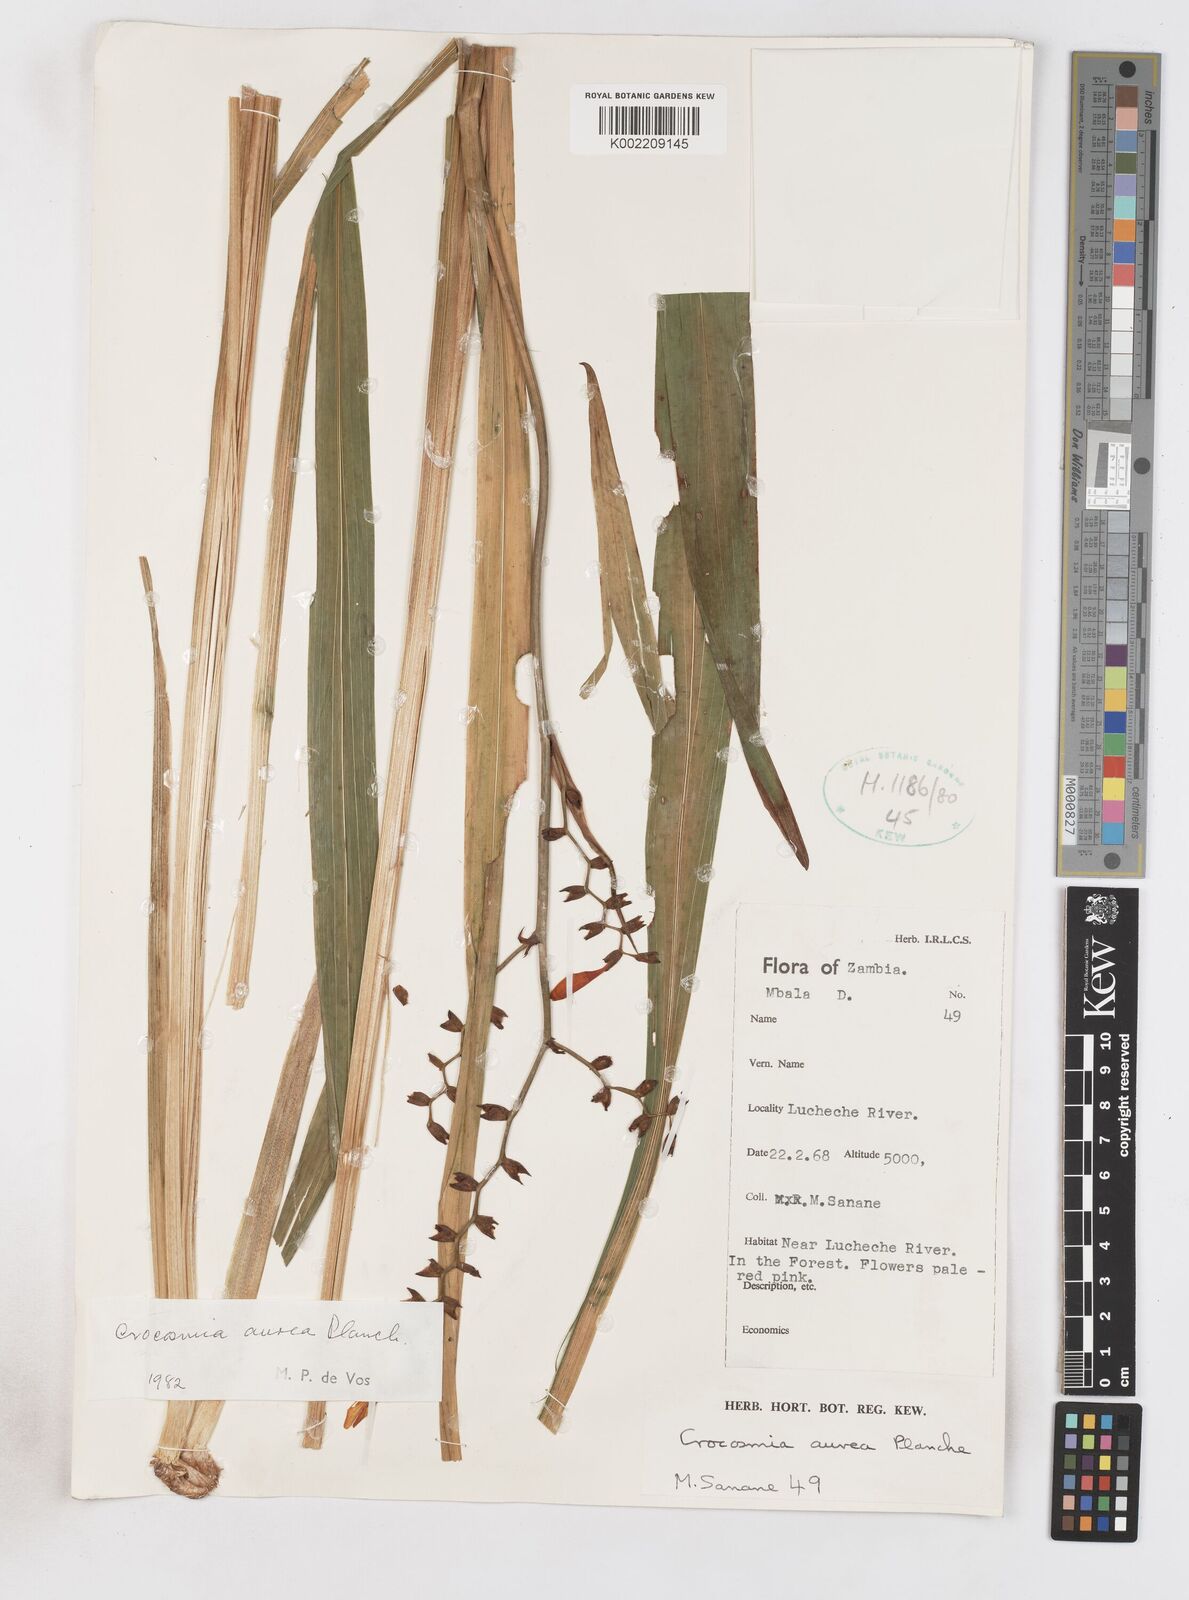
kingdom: Plantae
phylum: Tracheophyta
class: Liliopsida
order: Asparagales
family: Iridaceae
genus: Crocosmia
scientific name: Crocosmia aurea
